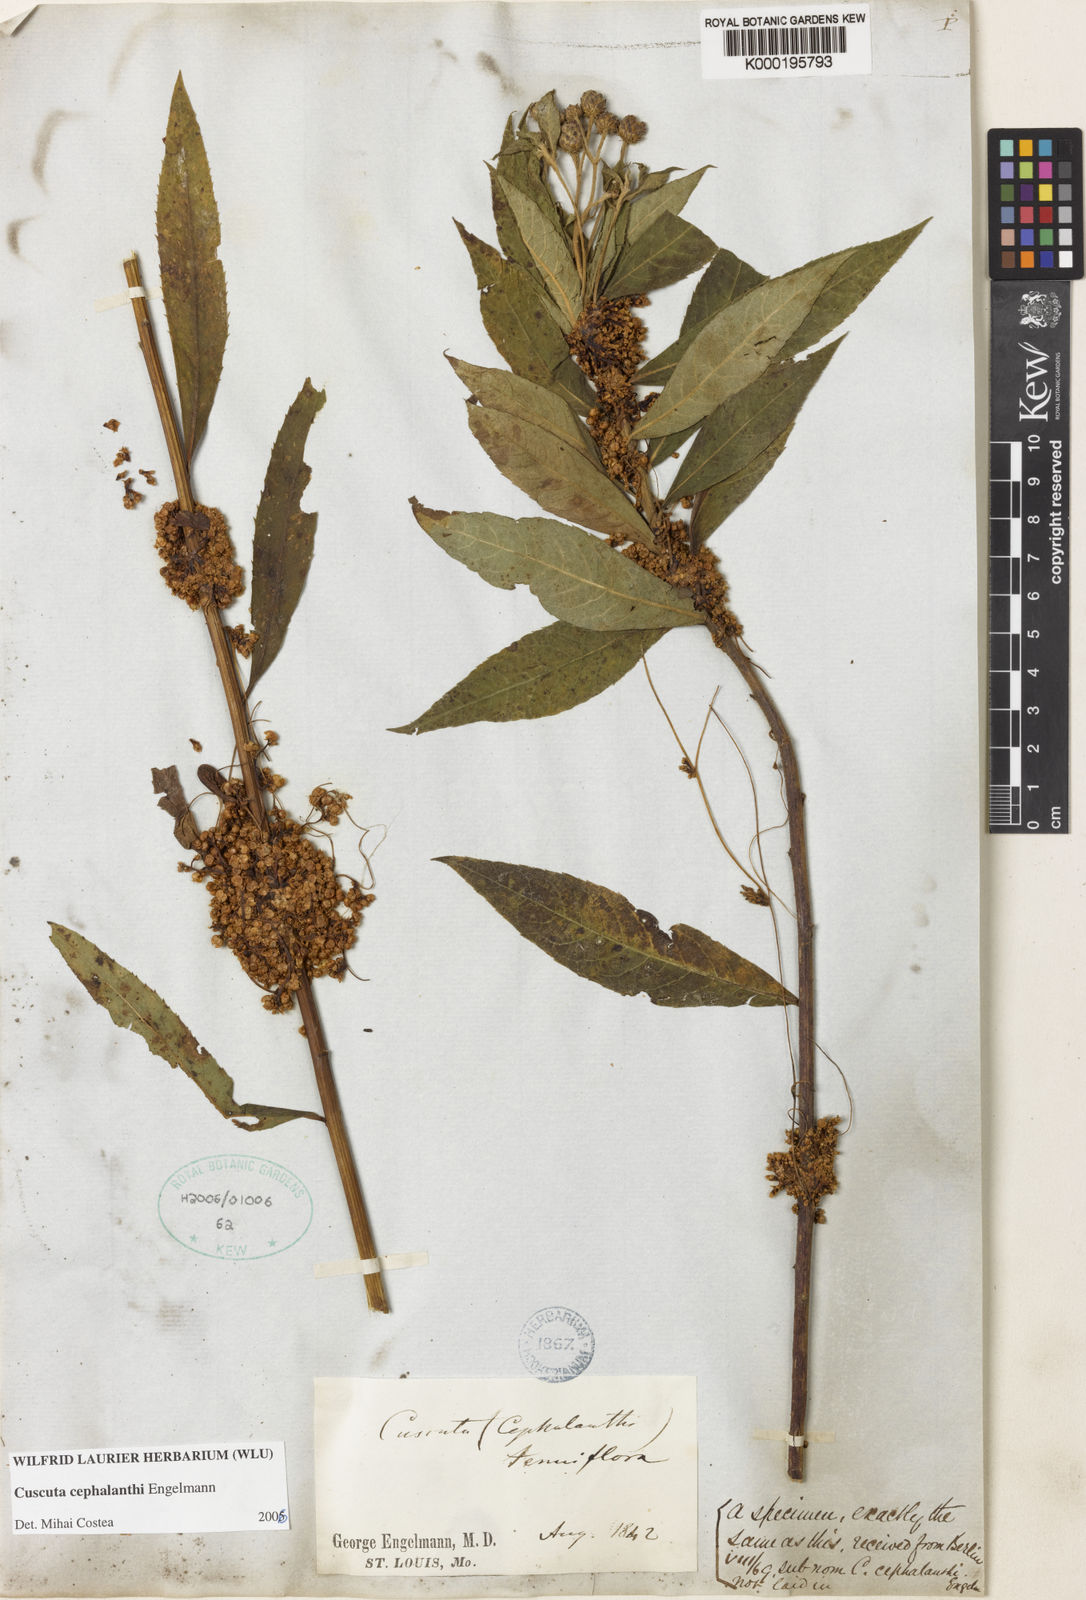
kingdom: Plantae
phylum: Tracheophyta
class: Magnoliopsida
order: Solanales
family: Convolvulaceae
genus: Cuscuta
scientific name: Cuscuta cephalanthi
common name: Button dodder
